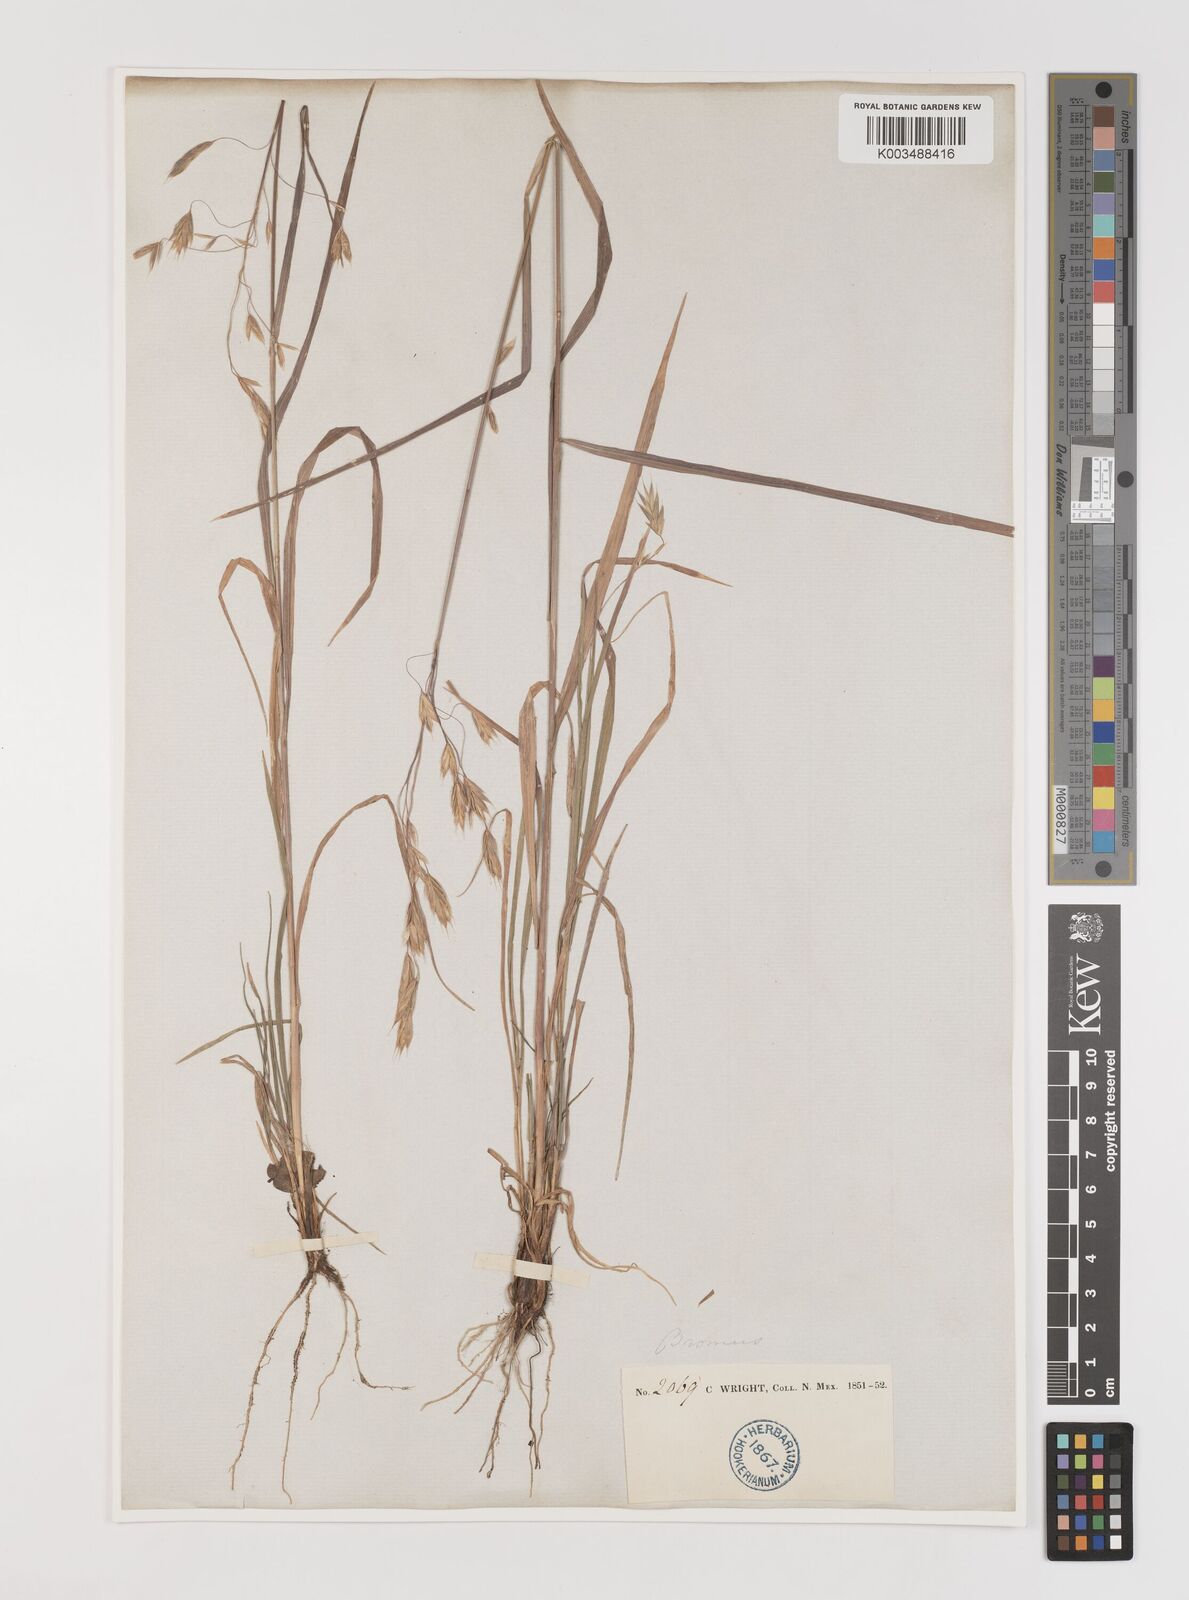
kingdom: Plantae
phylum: Tracheophyta
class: Liliopsida
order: Poales
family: Poaceae
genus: Bromus
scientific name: Bromus ciliatus
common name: Fringe brome
